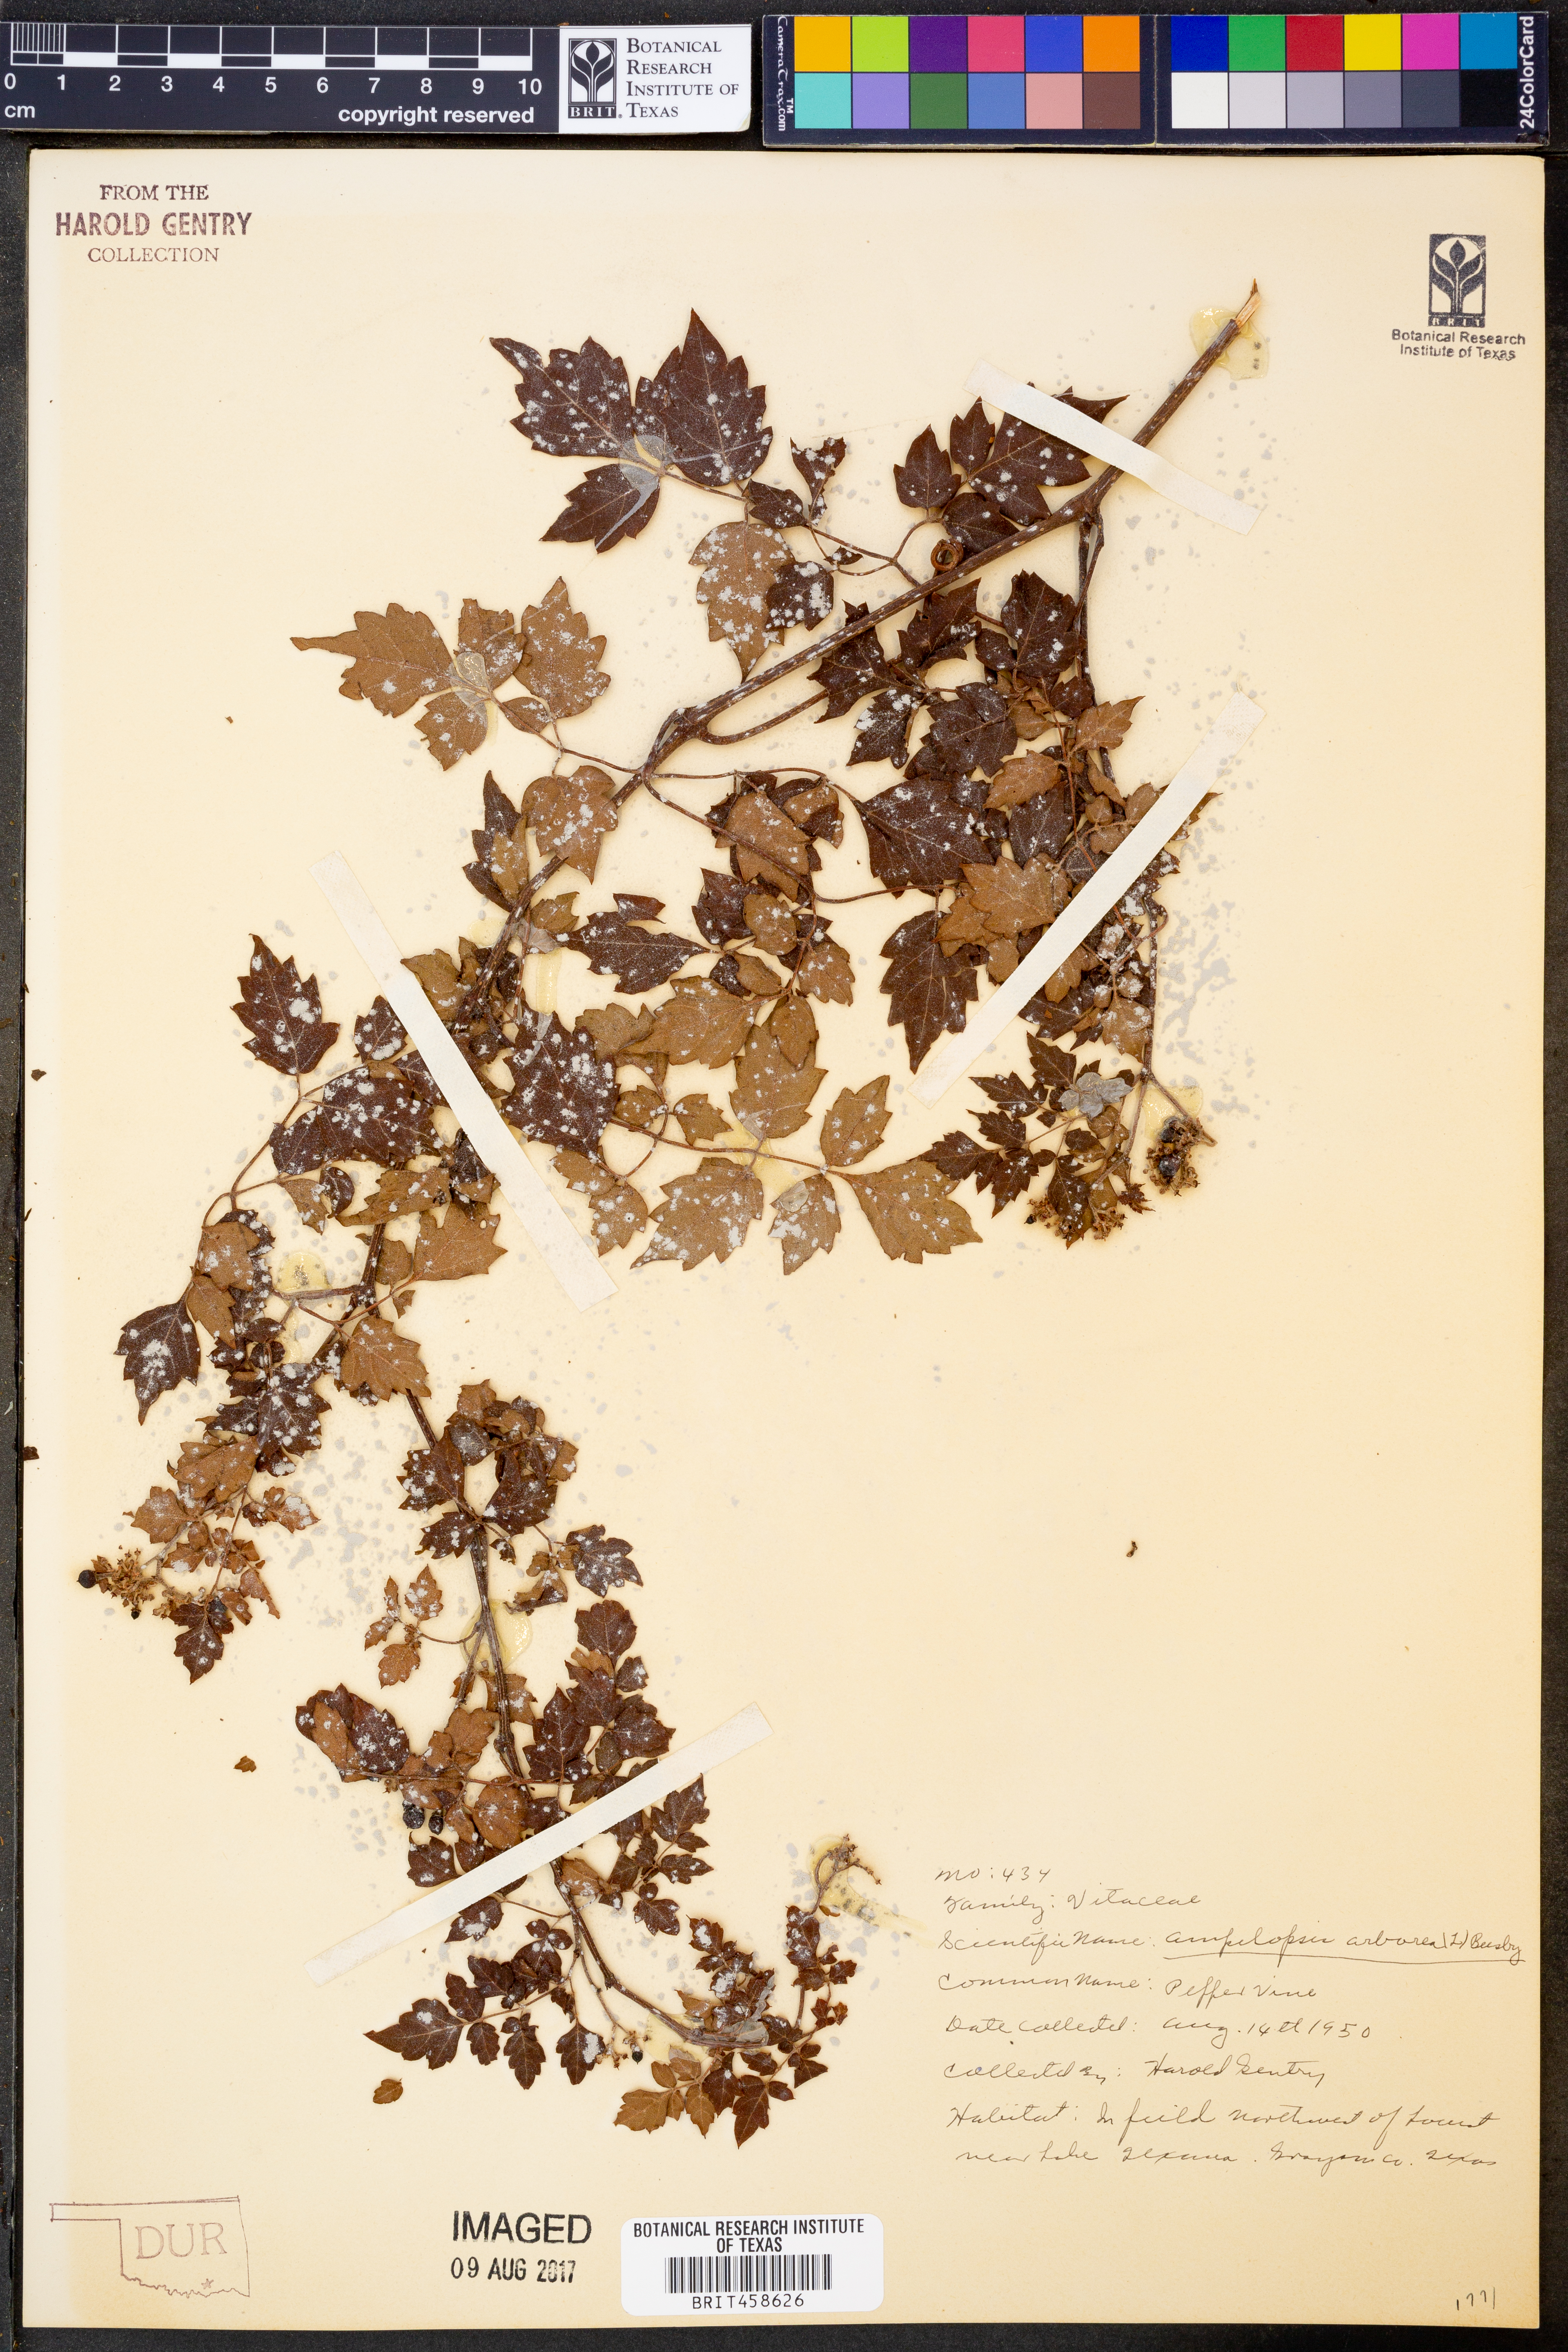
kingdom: Plantae
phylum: Tracheophyta
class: Magnoliopsida
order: Vitales
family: Vitaceae
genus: Nekemias
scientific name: Nekemias arborea
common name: Peppervine
